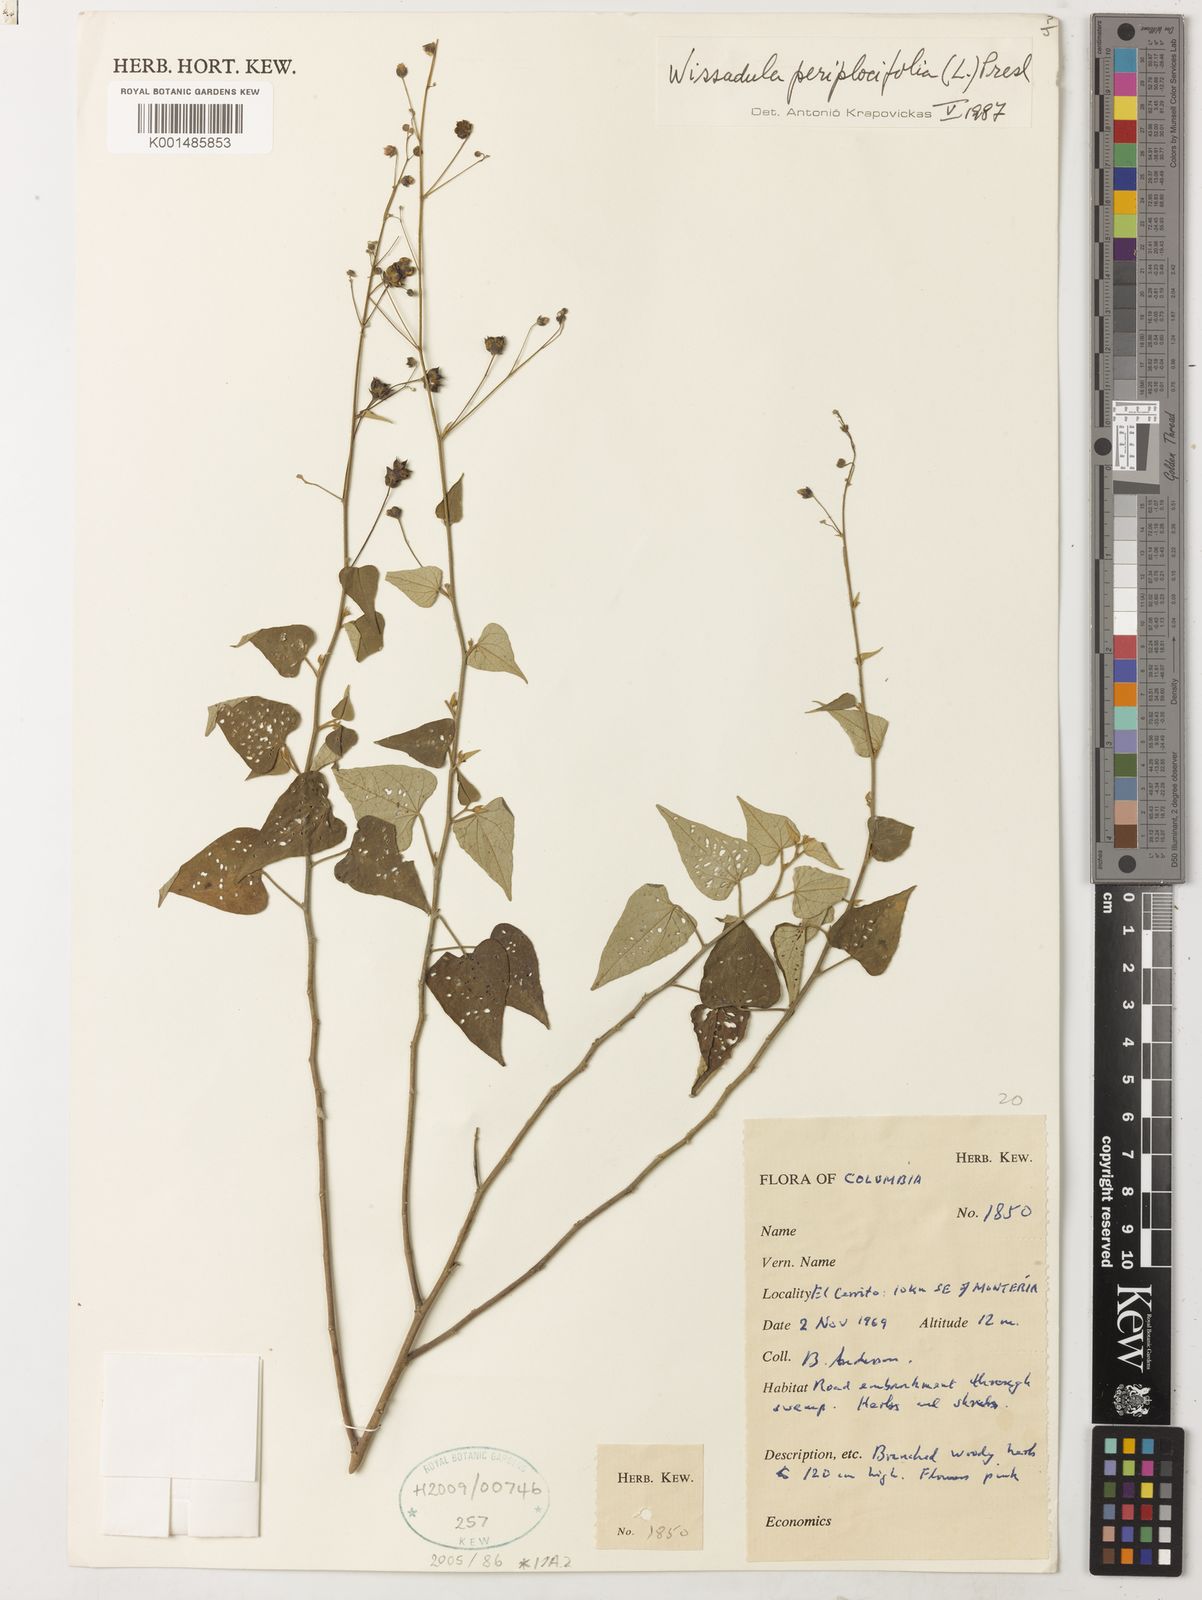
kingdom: Plantae
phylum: Tracheophyta
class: Magnoliopsida
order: Malvales
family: Malvaceae
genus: Wissadula
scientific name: Wissadula periplocifolia
